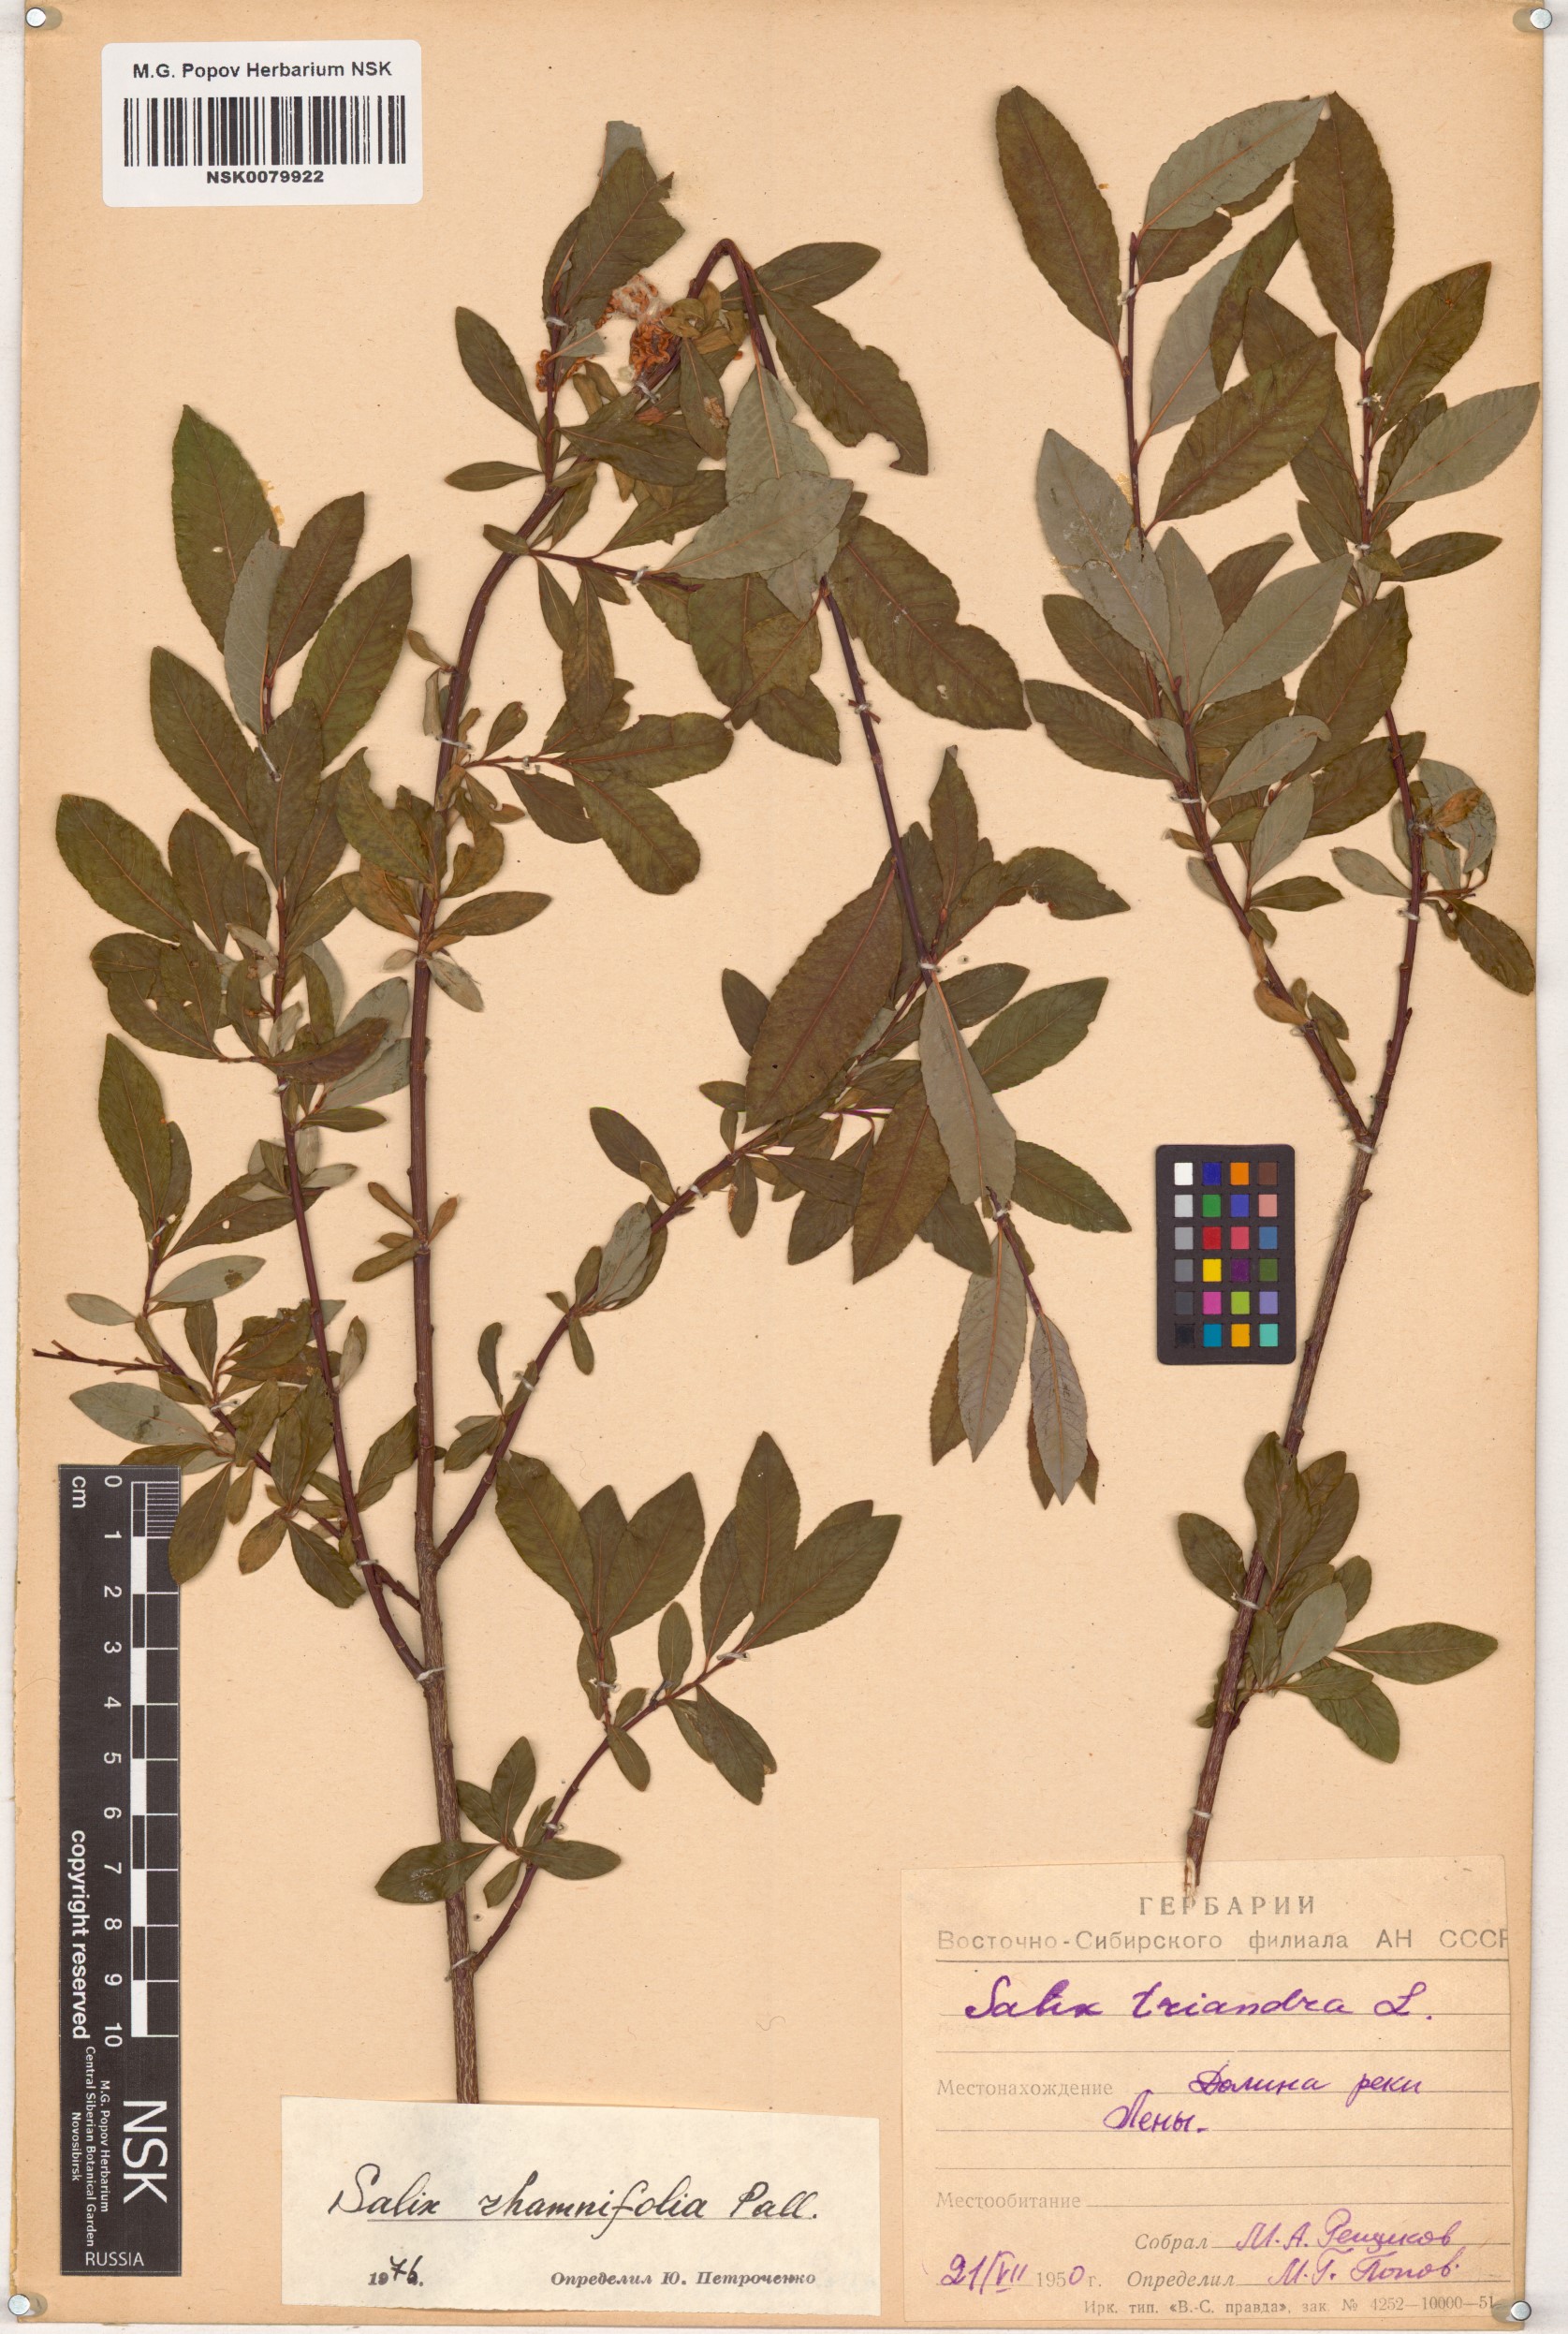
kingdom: Plantae
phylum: Tracheophyta
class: Magnoliopsida
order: Malpighiales
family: Salicaceae
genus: Salix
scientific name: Salix rhamnifolia
